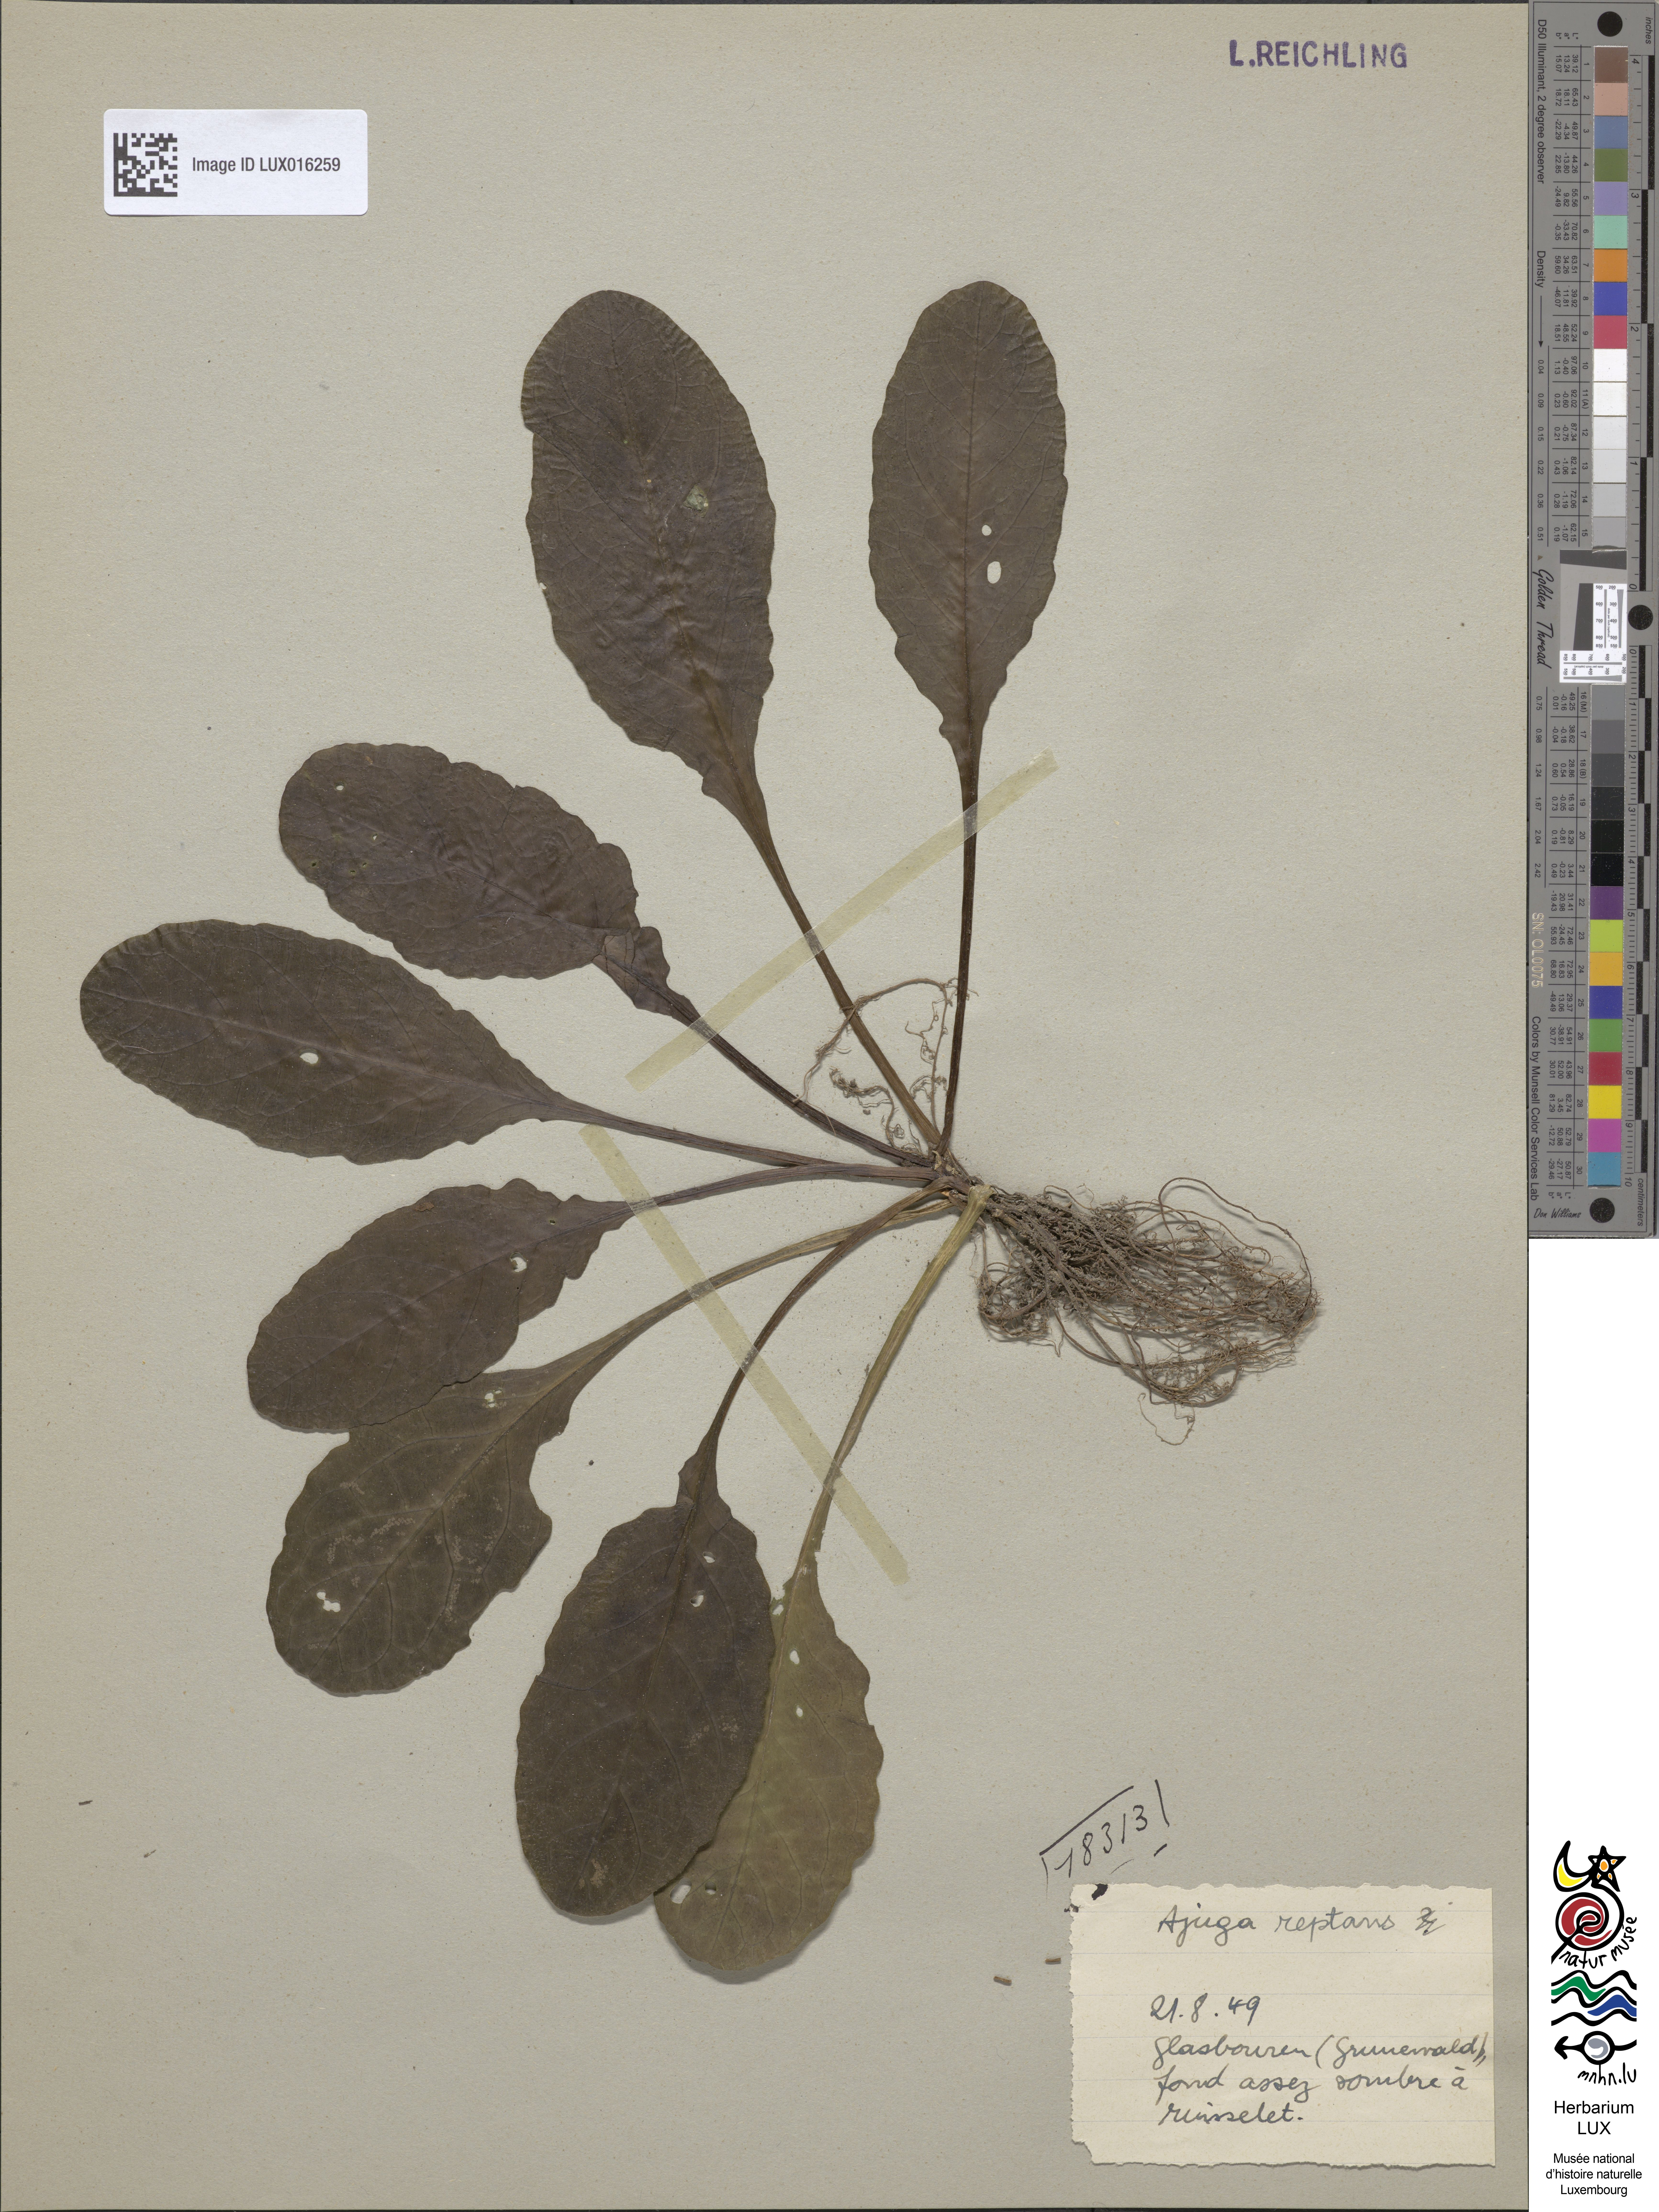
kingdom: Plantae
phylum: Tracheophyta
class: Magnoliopsida
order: Lamiales
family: Lamiaceae
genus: Ajuga
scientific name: Ajuga reptans
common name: Bugle
